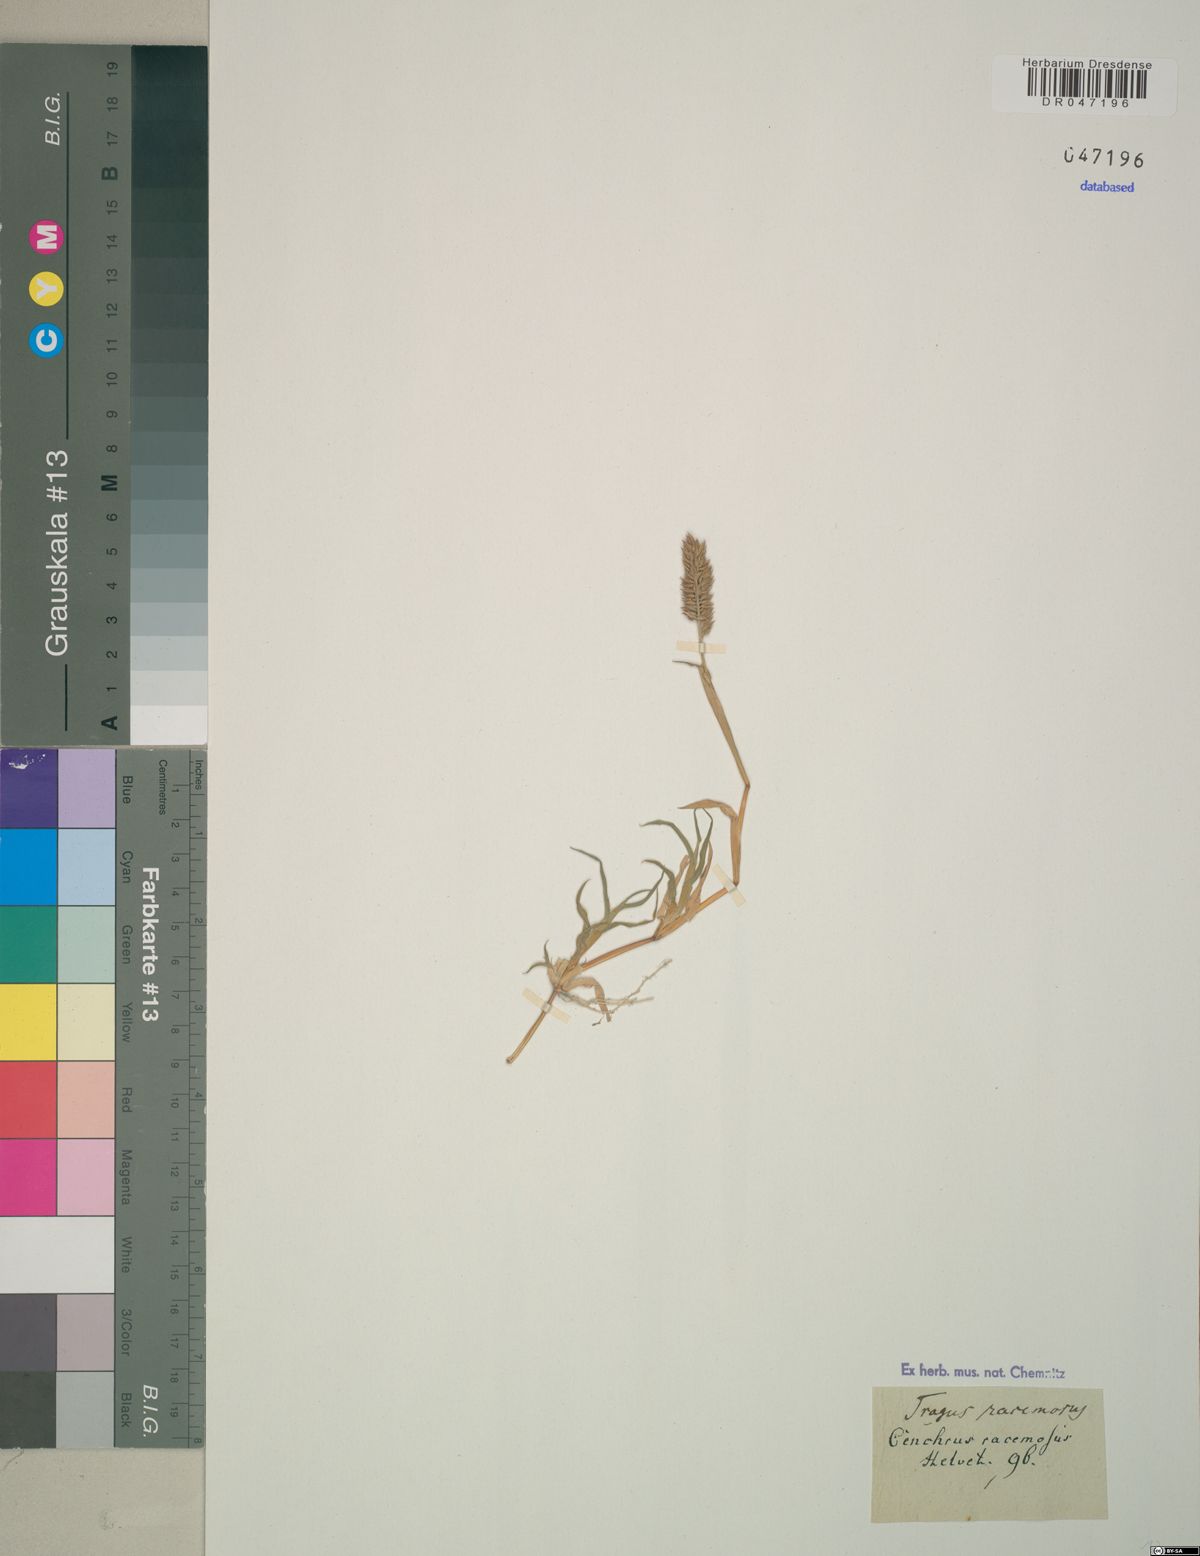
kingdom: Plantae
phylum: Tracheophyta
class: Liliopsida
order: Poales
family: Poaceae
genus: Tragus
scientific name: Tragus racemosus
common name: European bur-grass
